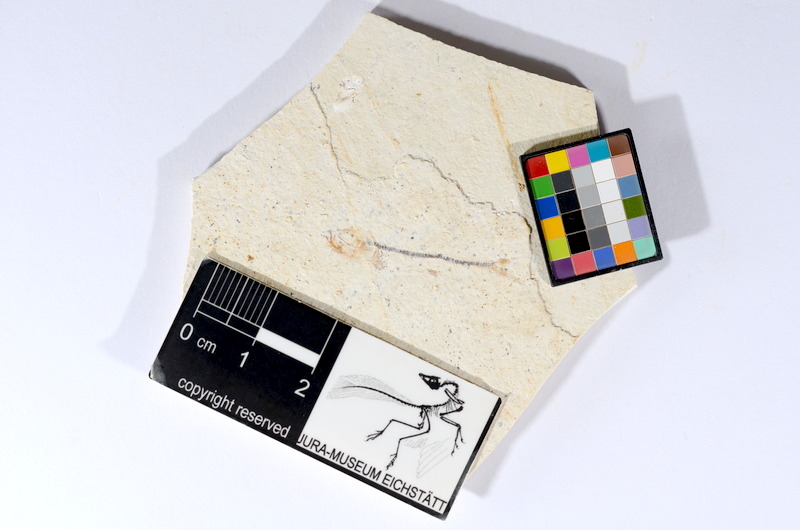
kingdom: Animalia
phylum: Chordata
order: Salmoniformes
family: Orthogonikleithridae
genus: Orthogonikleithrus
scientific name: Orthogonikleithrus hoelli
